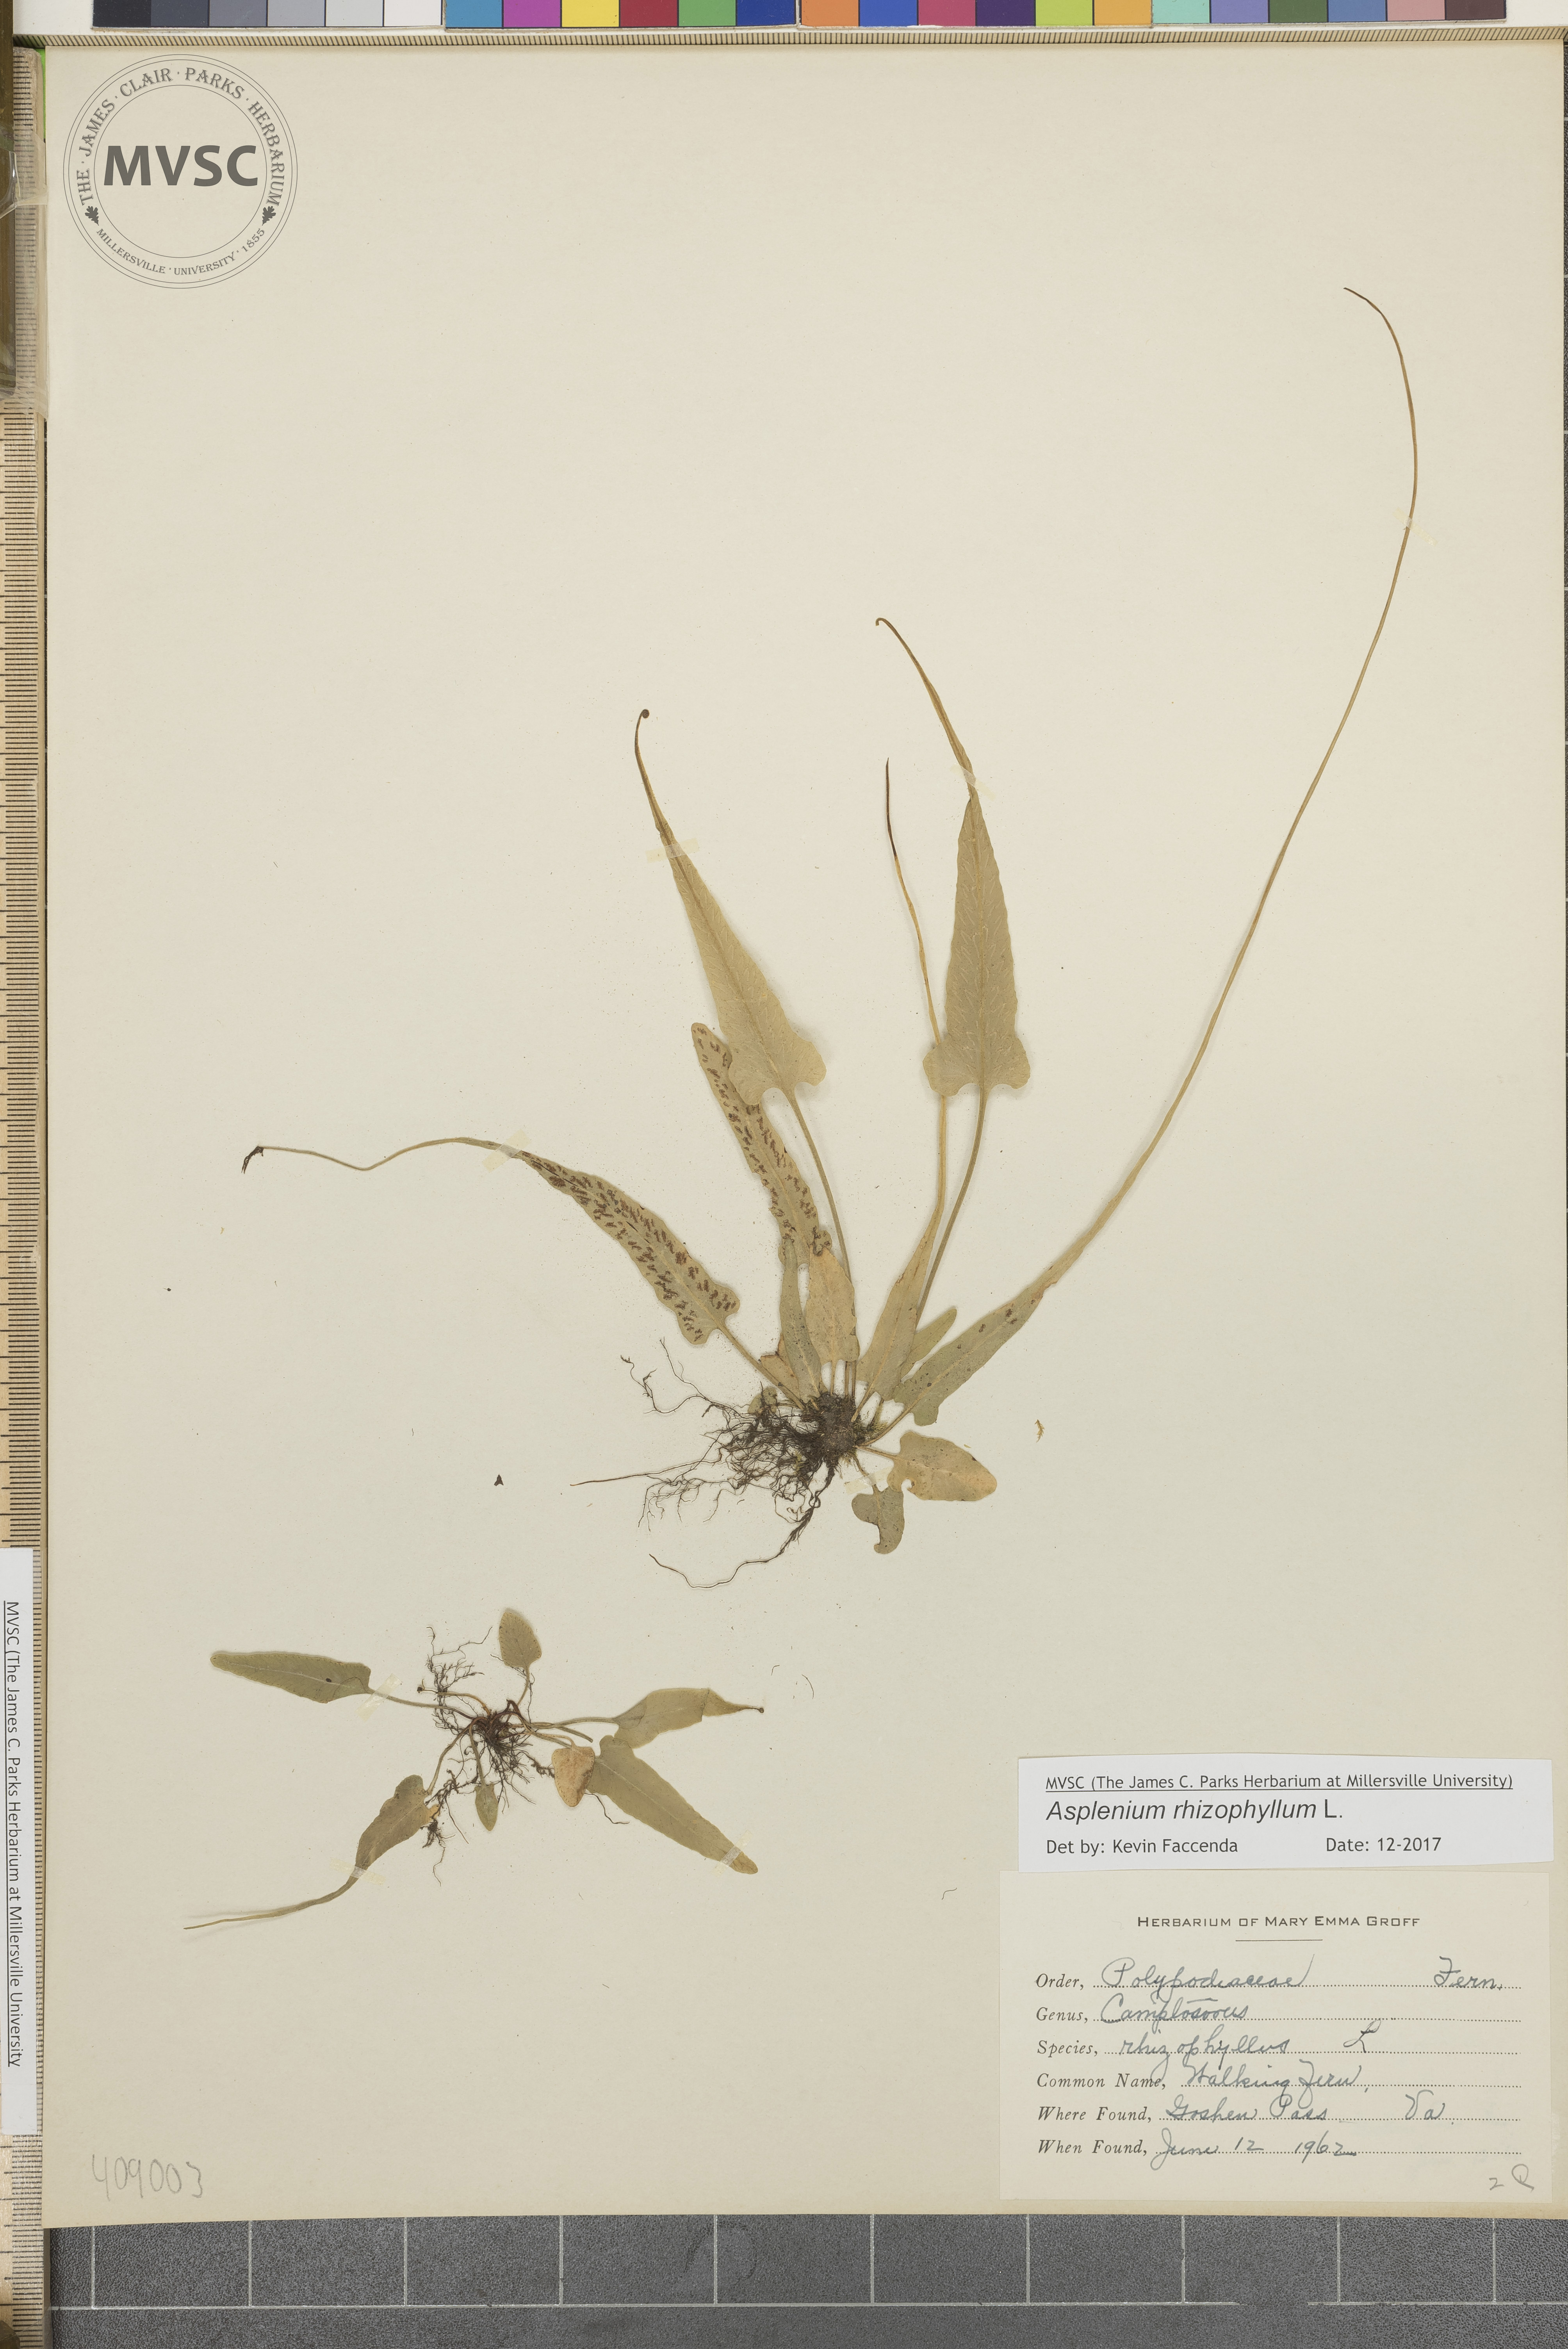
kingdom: Plantae
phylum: Tracheophyta
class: Polypodiopsida
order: Polypodiales
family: Aspleniaceae
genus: Asplenium
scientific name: Asplenium rhizophyllum
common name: Walking fern
